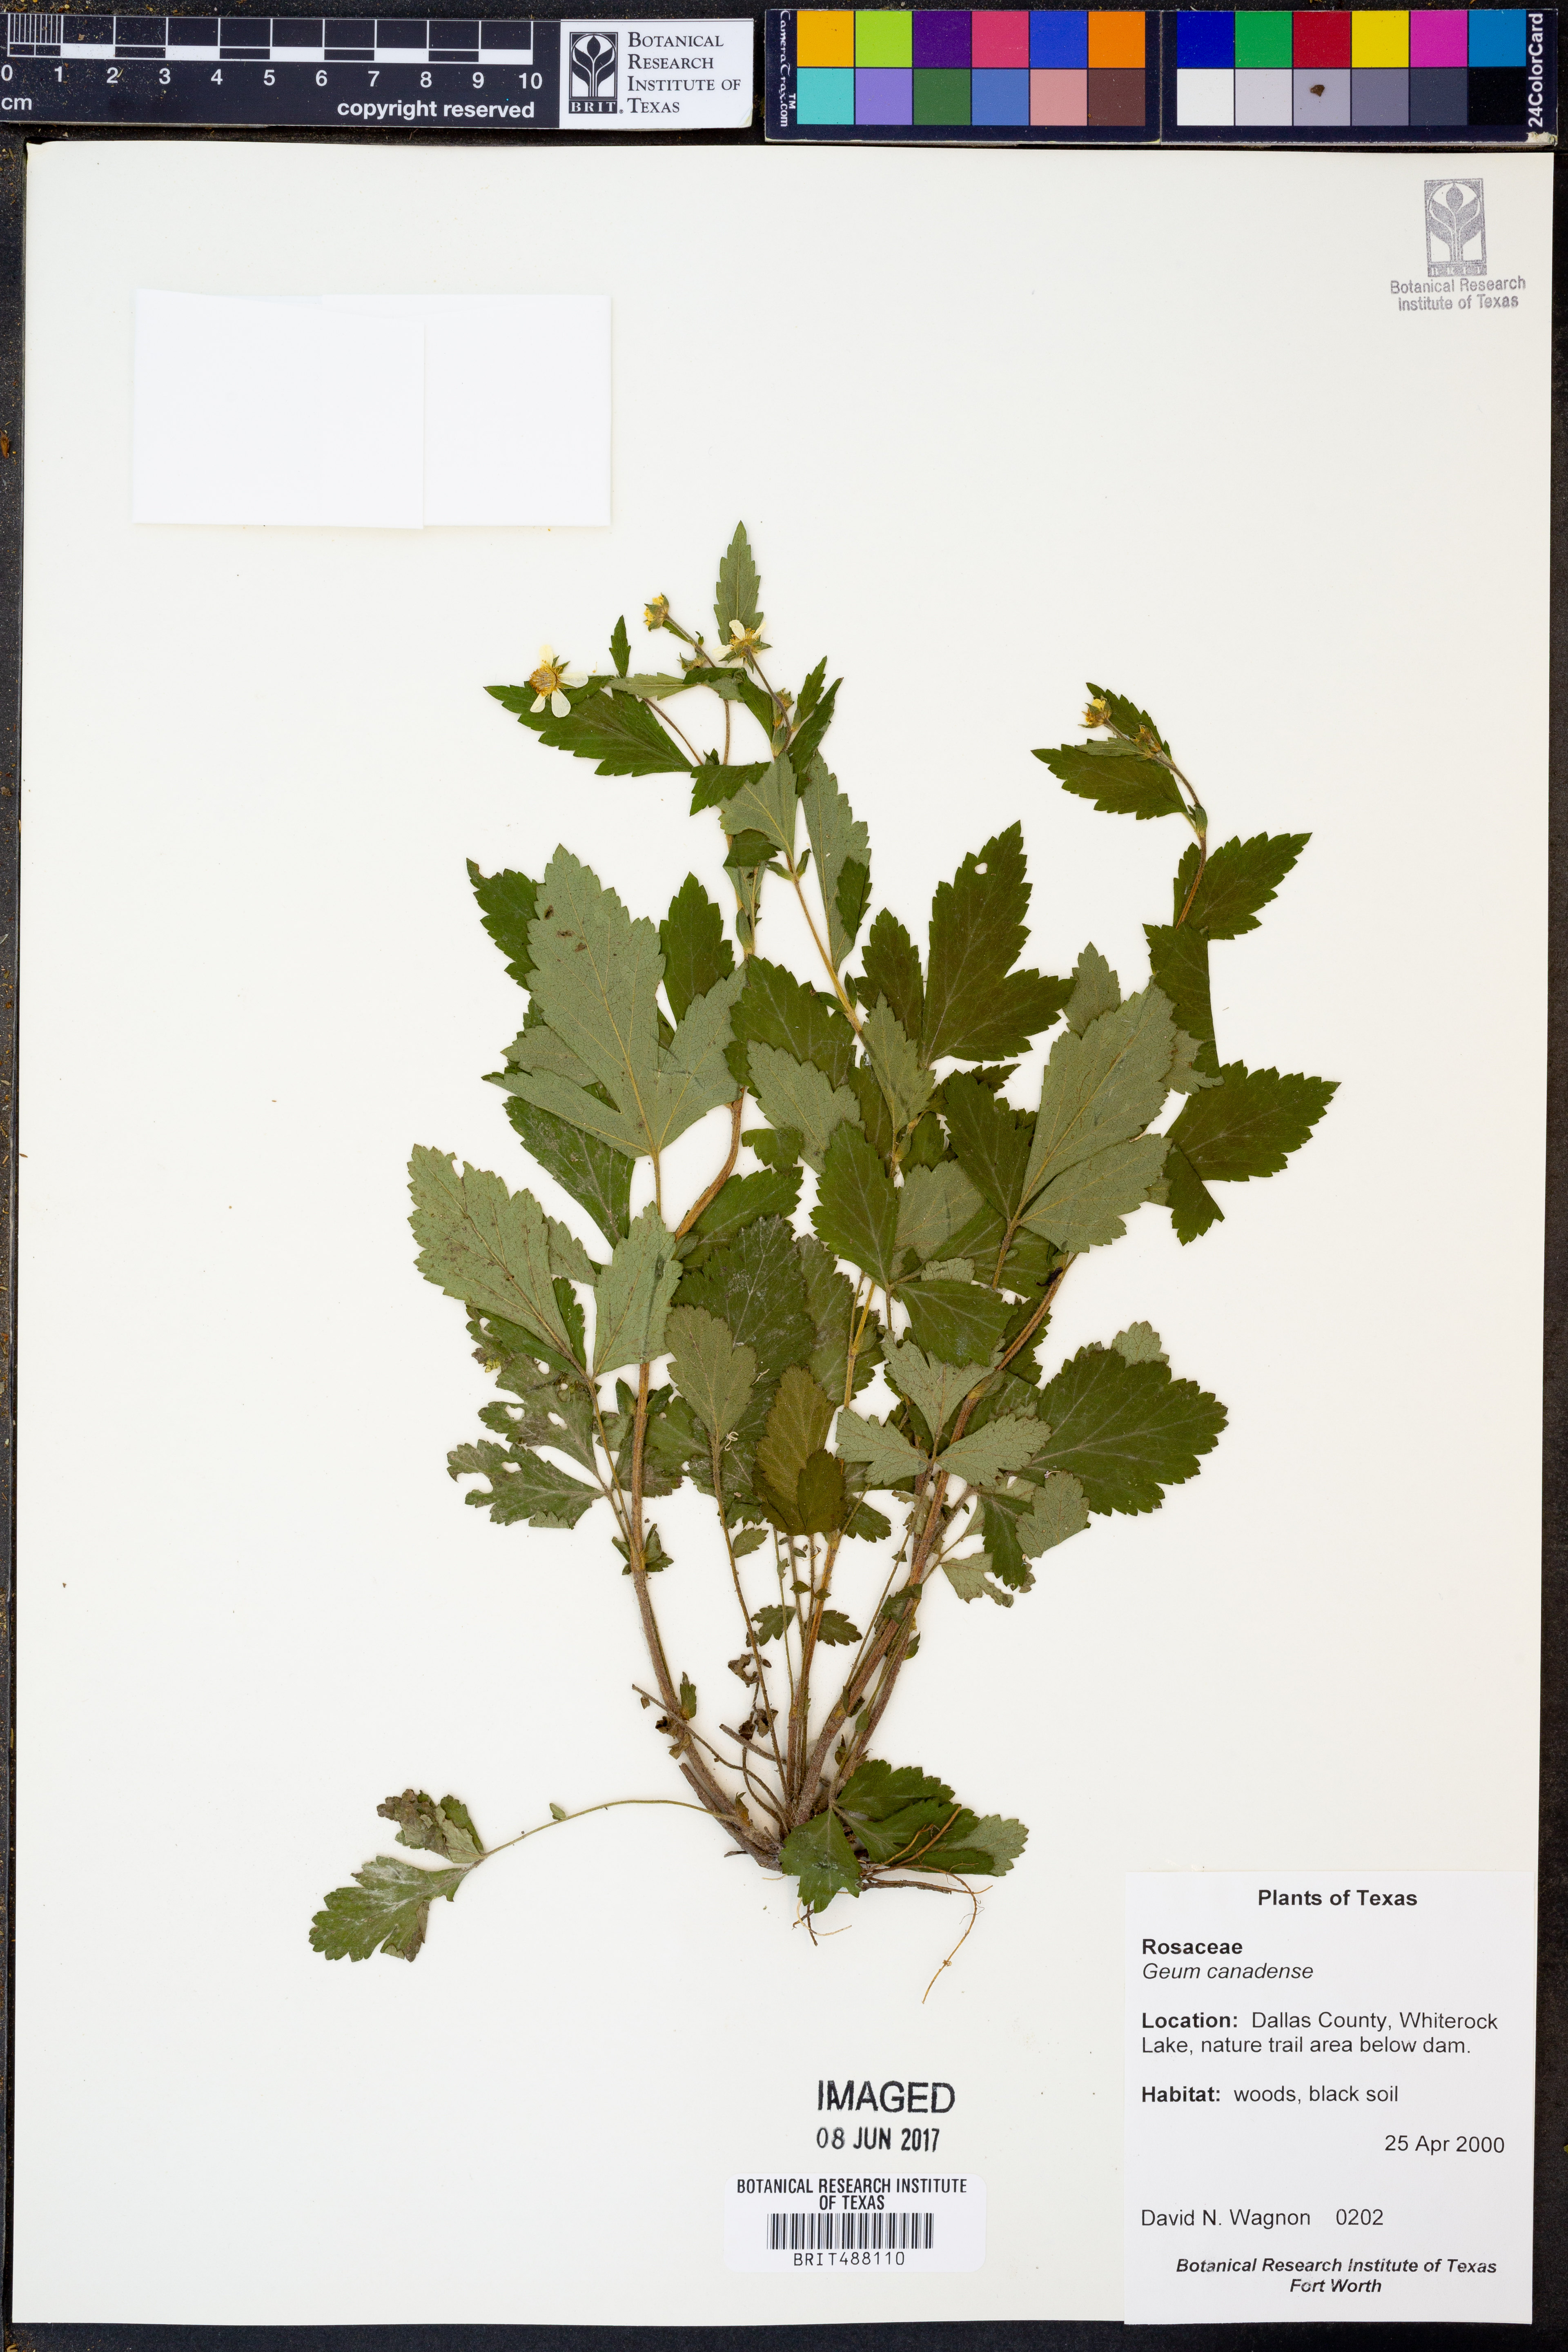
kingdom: Plantae
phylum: Tracheophyta
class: Magnoliopsida
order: Rosales
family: Rosaceae
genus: Geum
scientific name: Geum canadense
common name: White avens
